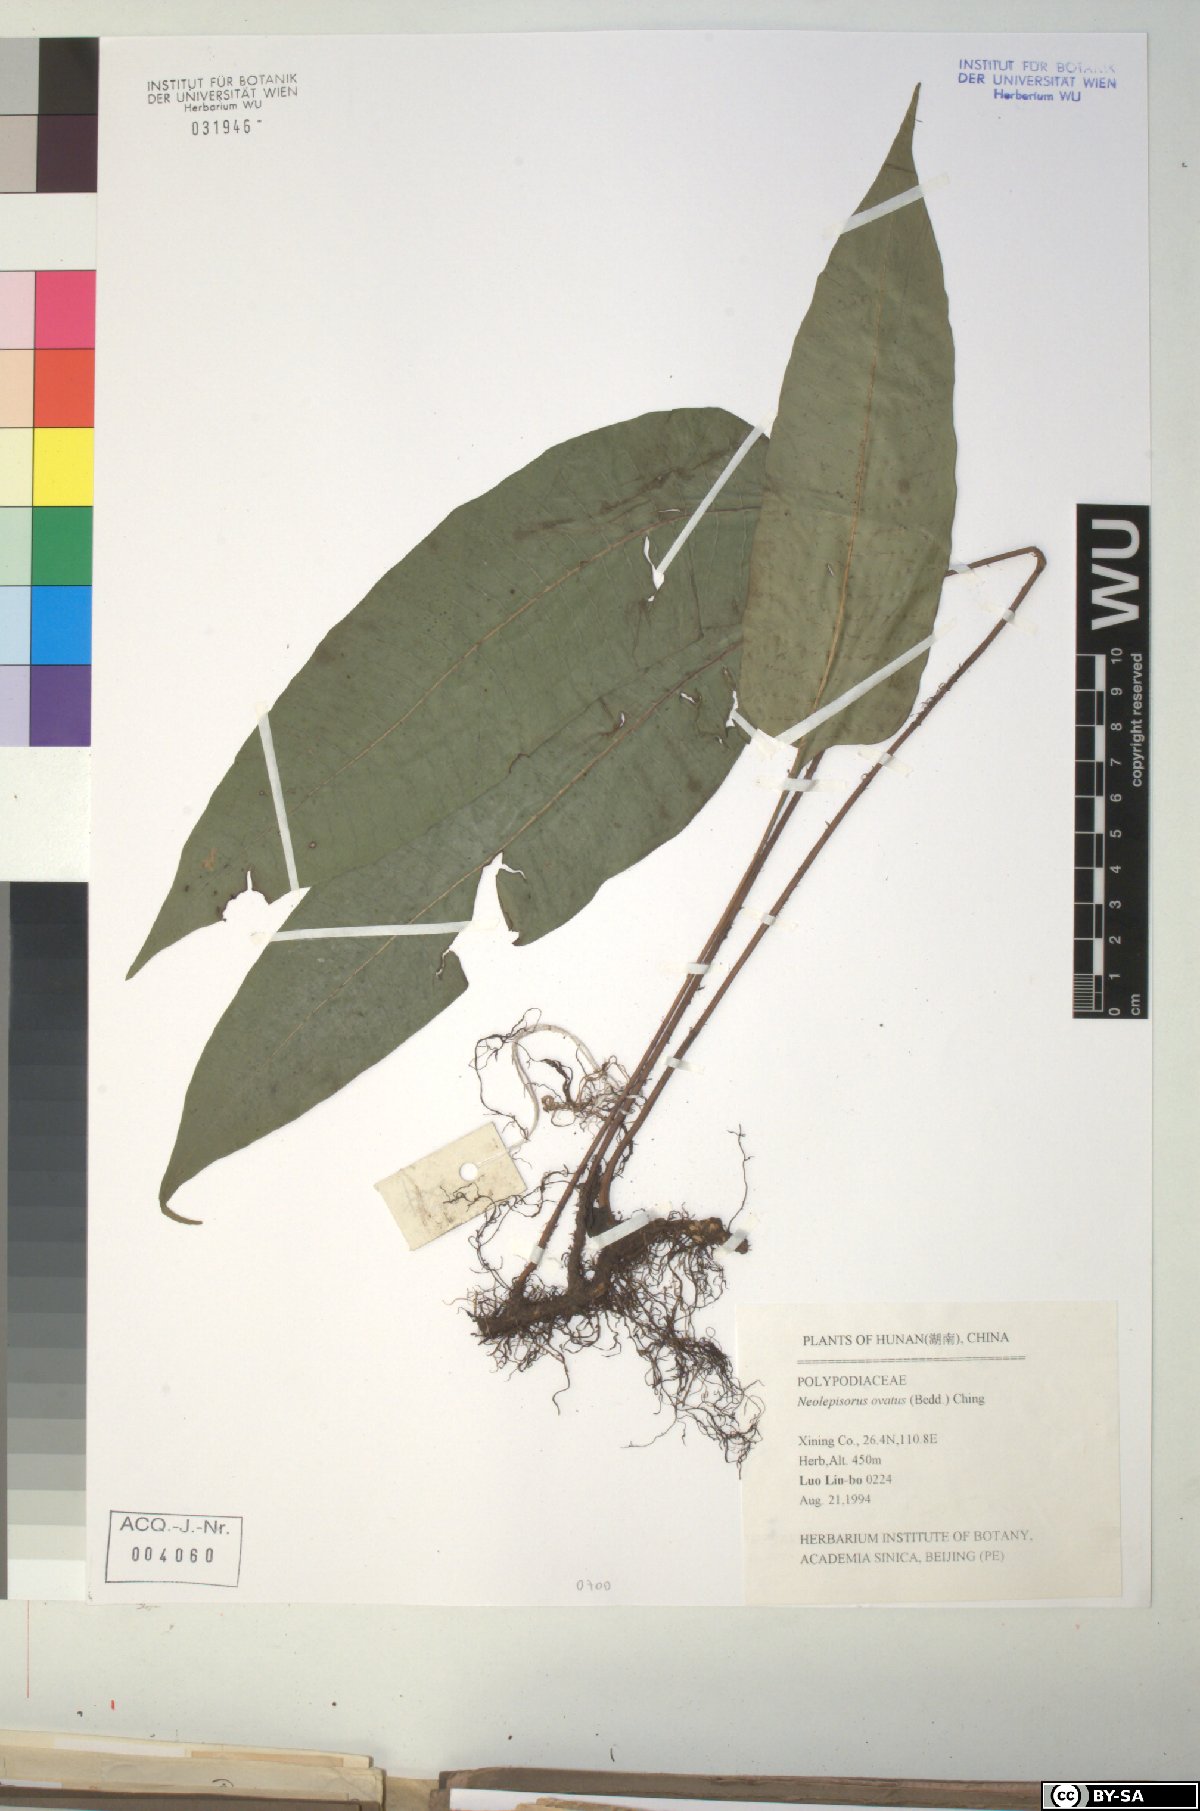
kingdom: Plantae
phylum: Tracheophyta
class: Polypodiopsida
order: Polypodiales
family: Polypodiaceae
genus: Lepisorus
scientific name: Lepisorus ovatus
